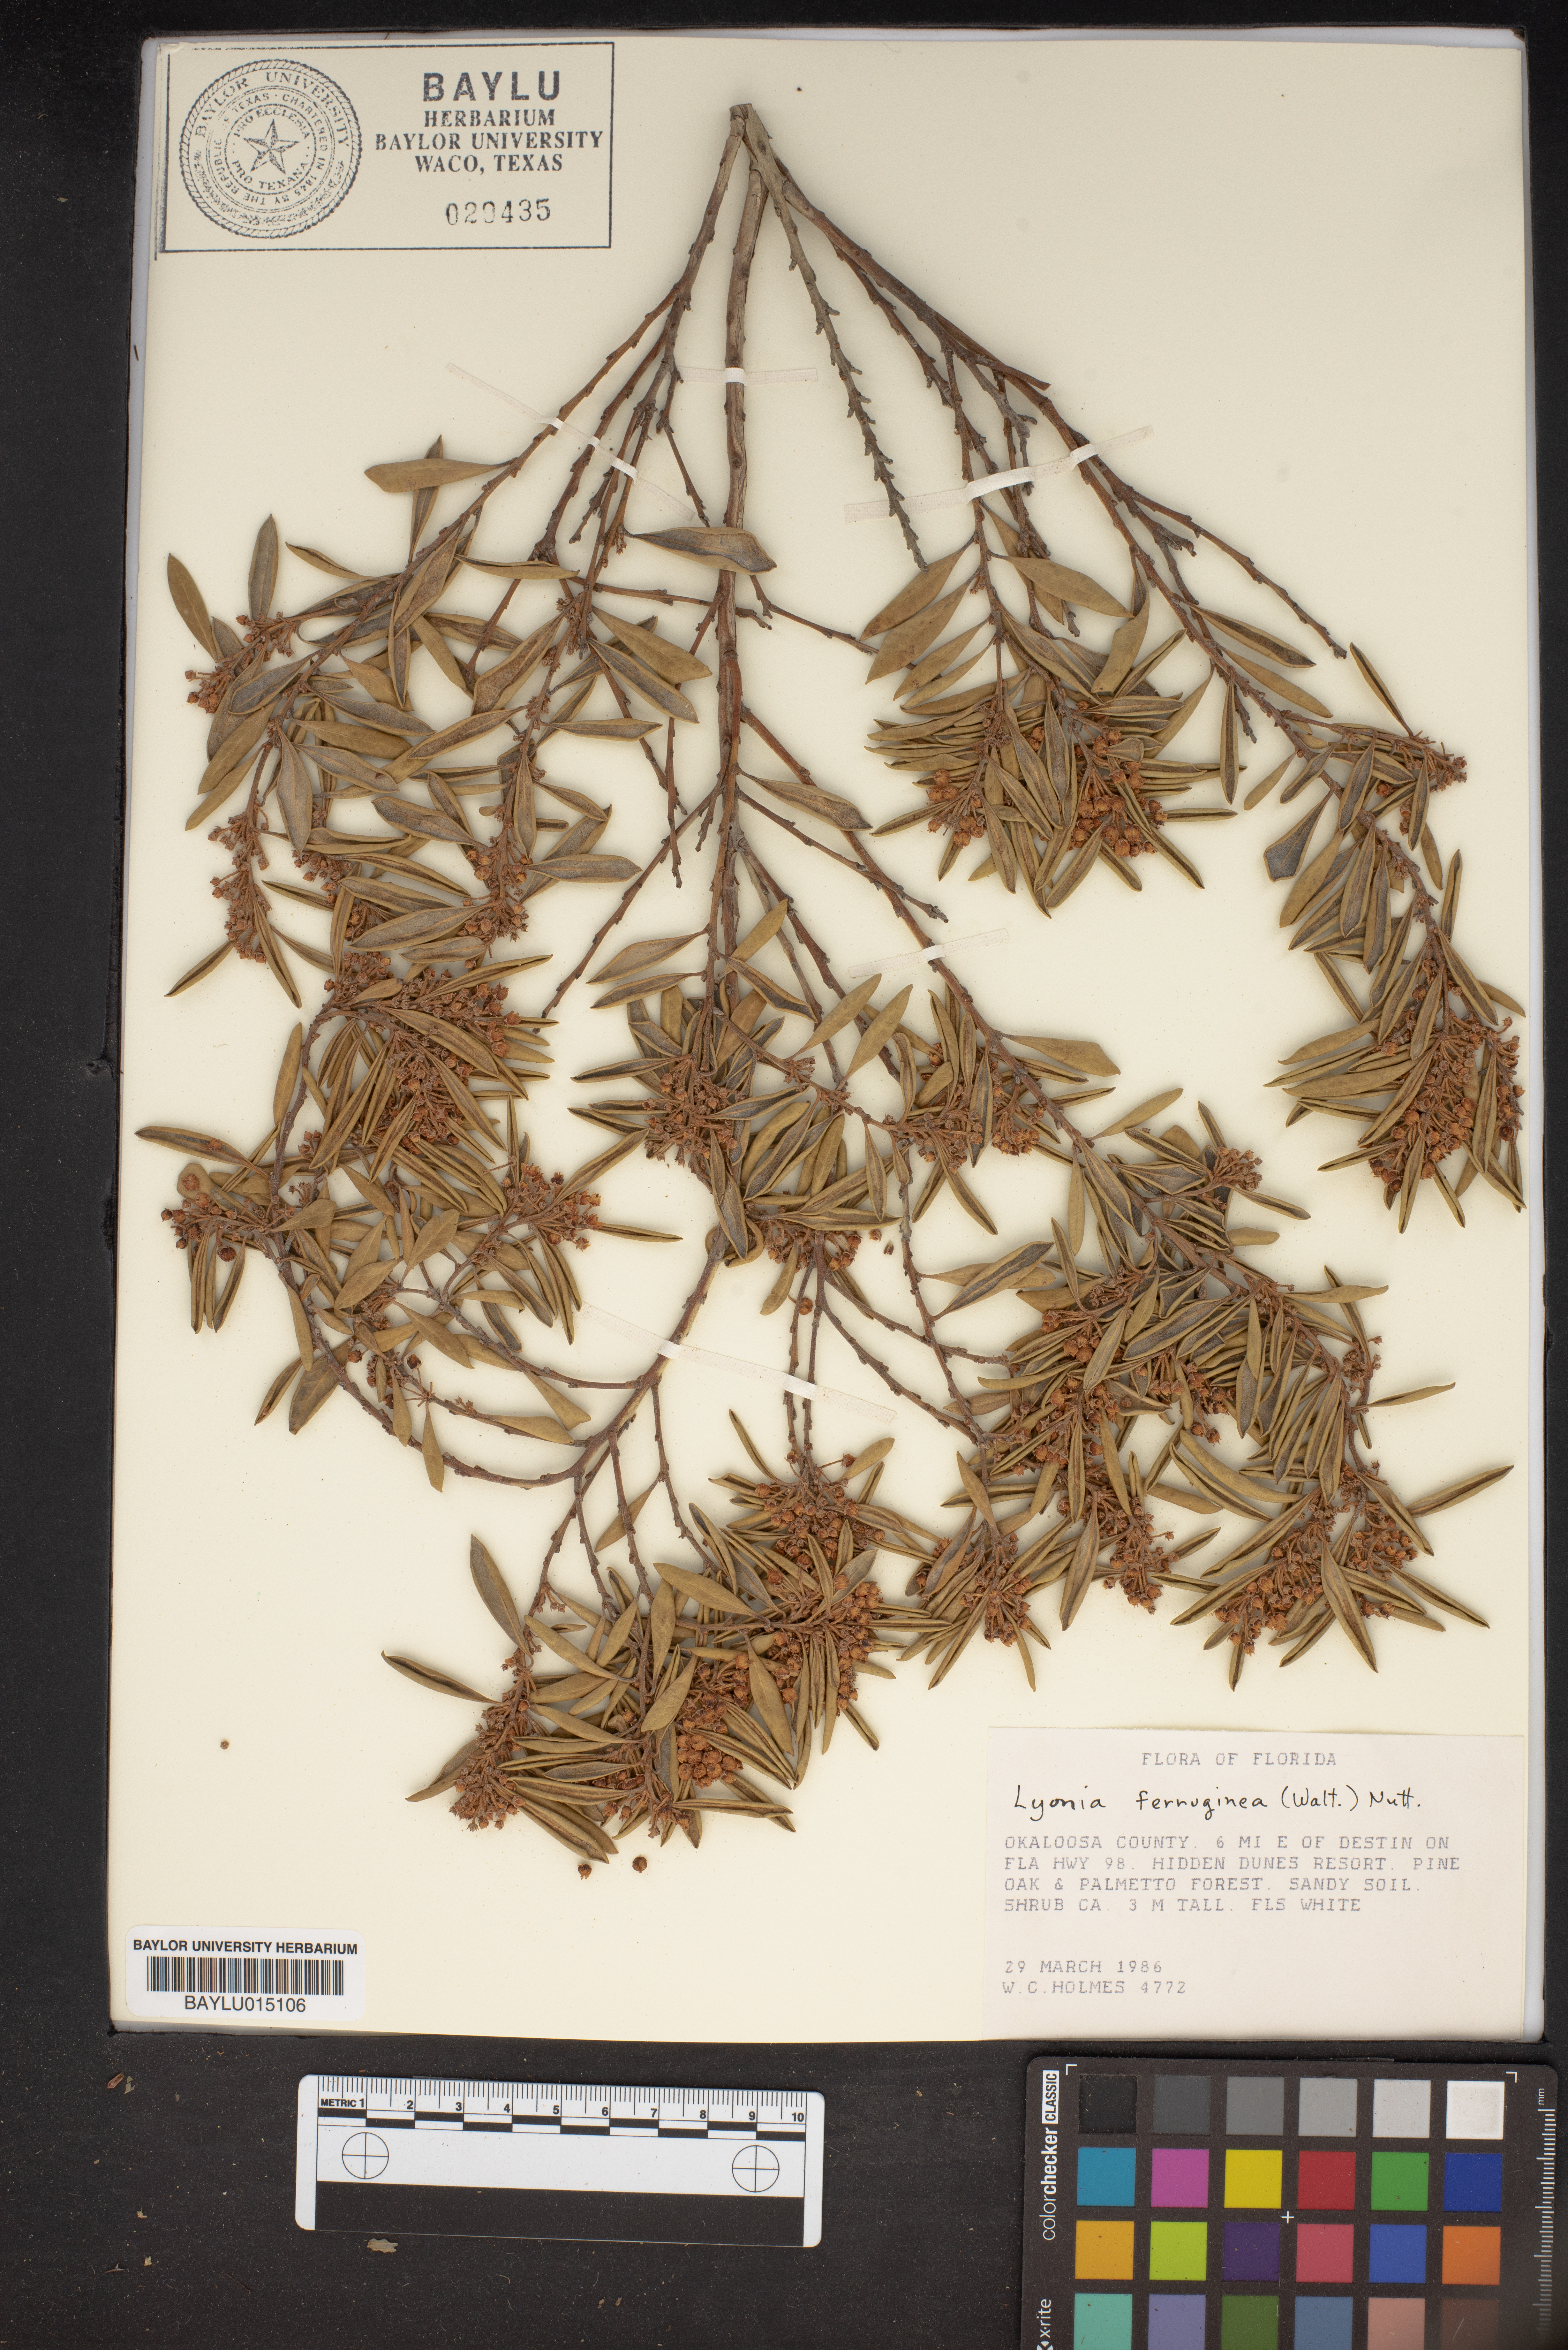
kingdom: Plantae
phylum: Tracheophyta
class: Magnoliopsida
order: Ericales
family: Ericaceae
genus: Lyonia
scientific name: Lyonia ferruginea
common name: Rusty lyonia
